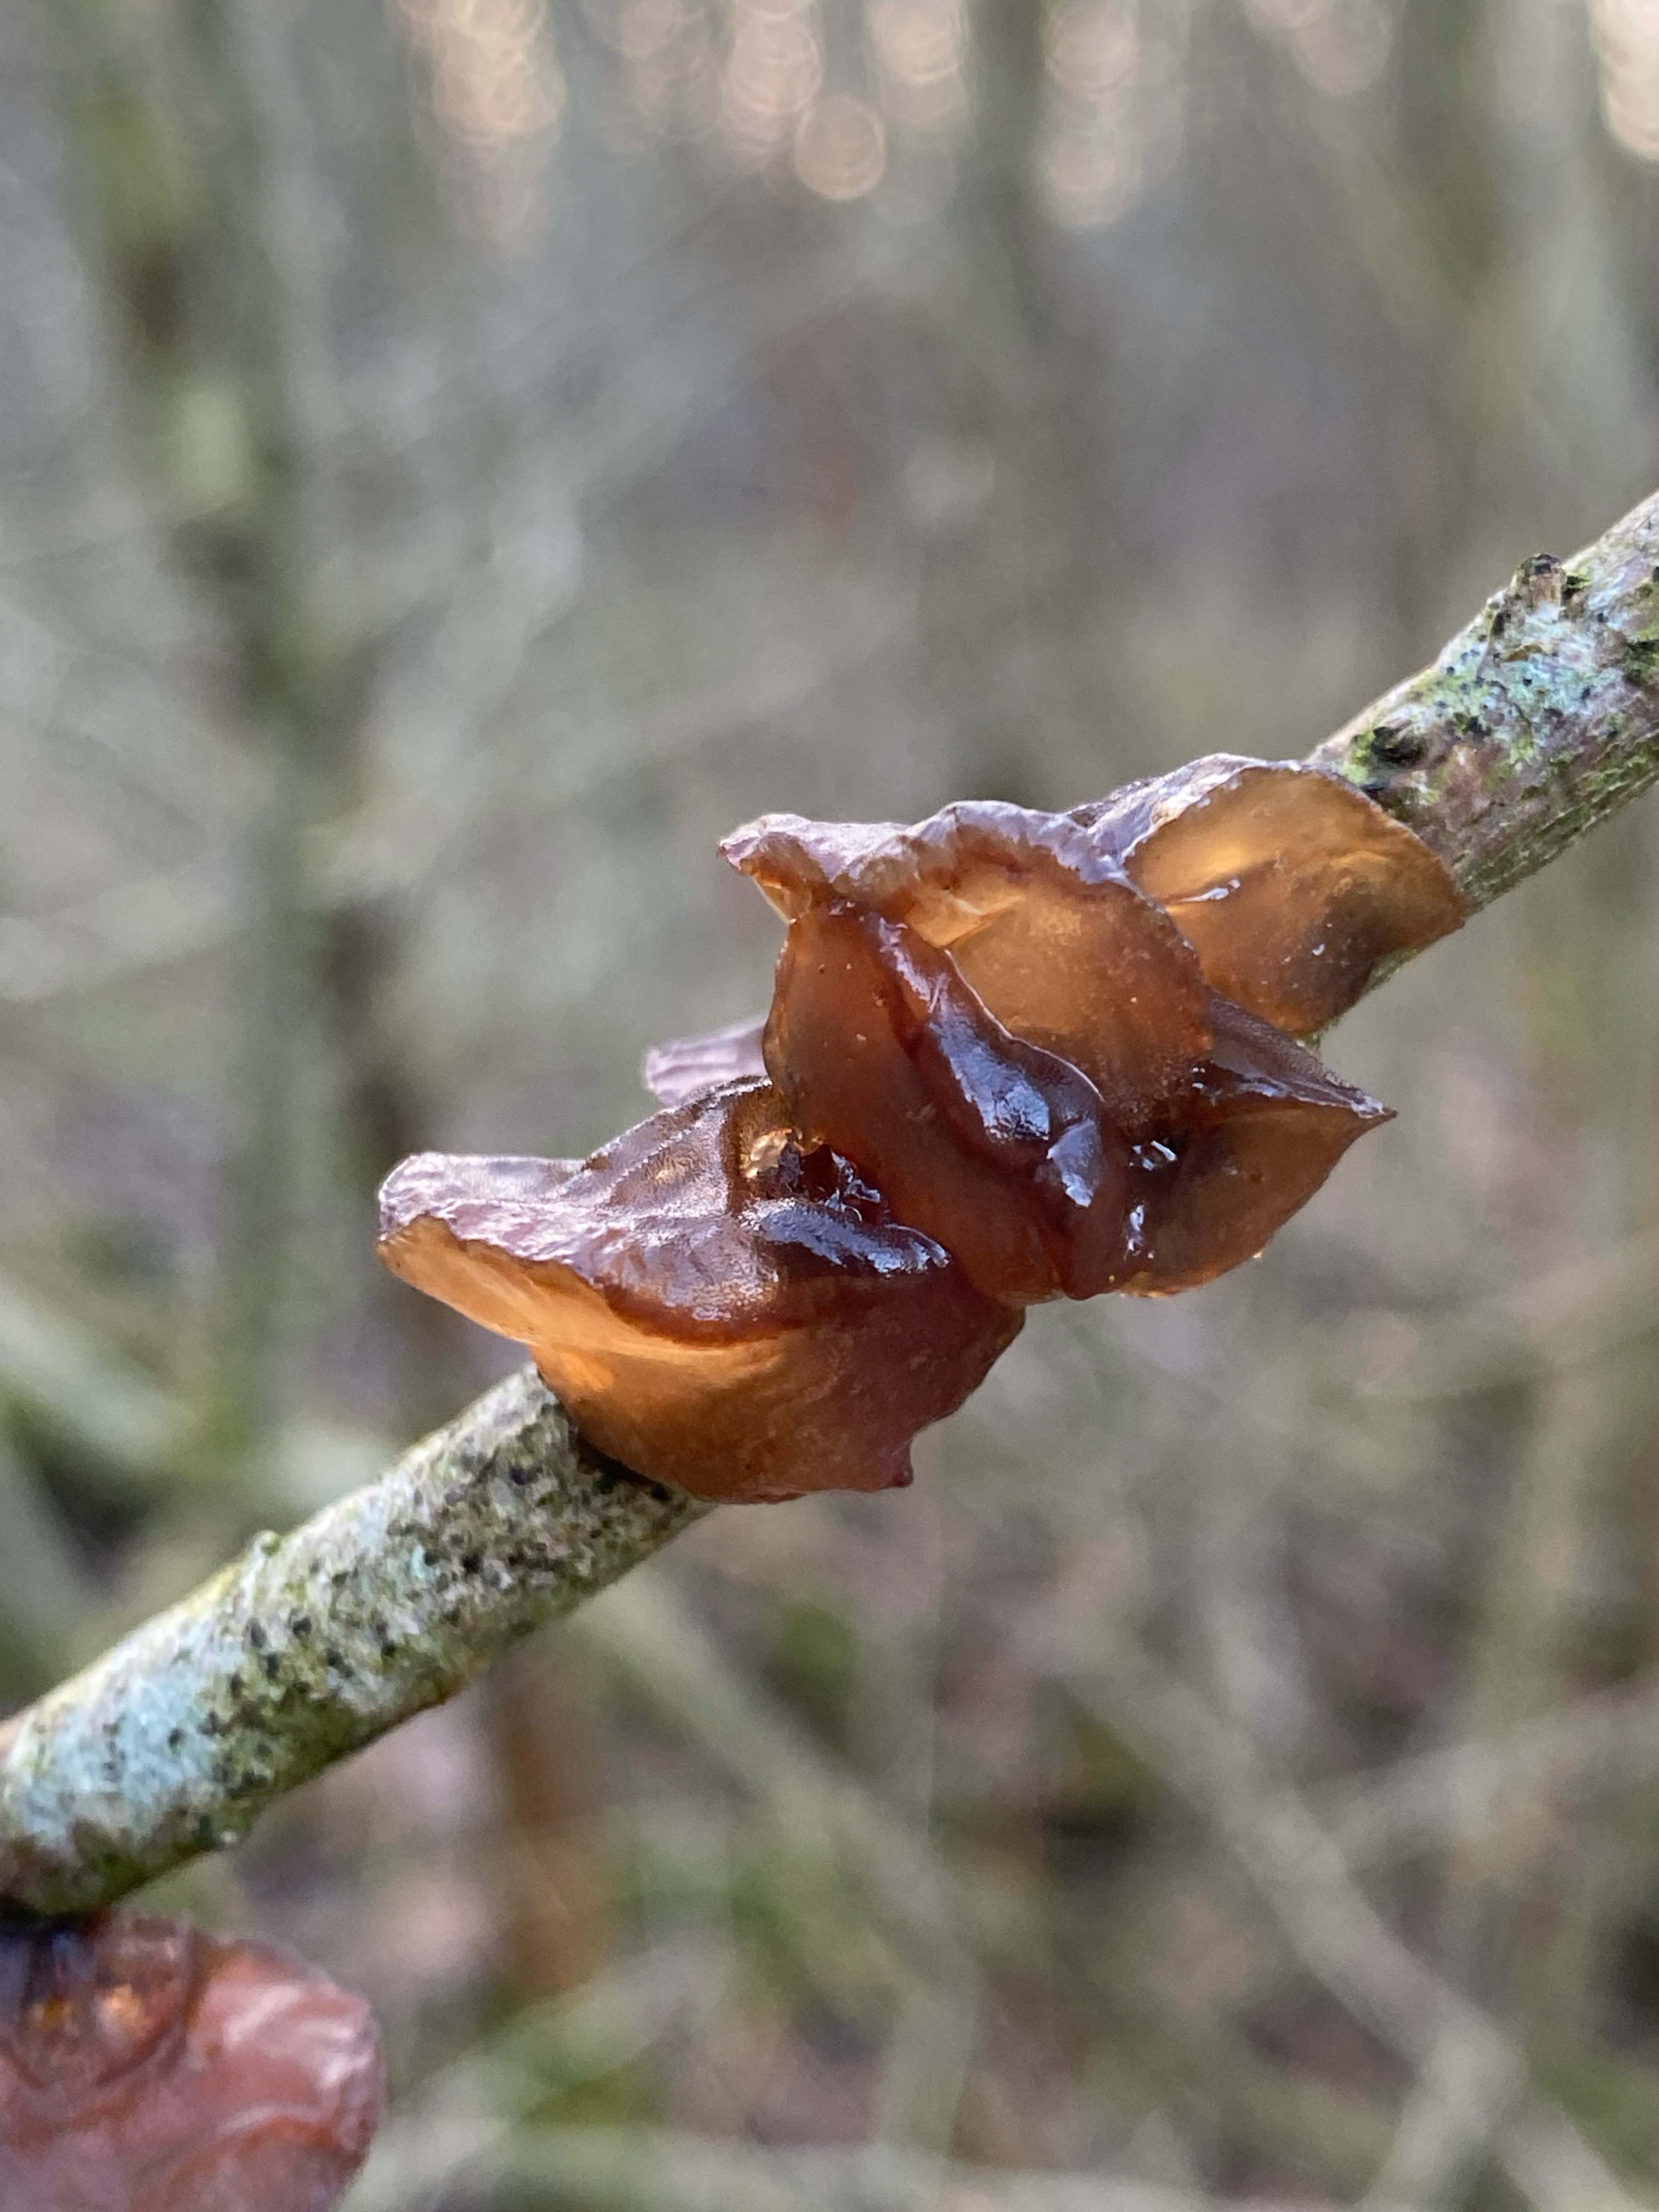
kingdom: Fungi
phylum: Basidiomycota
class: Agaricomycetes
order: Auriculariales
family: Auriculariaceae
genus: Exidia
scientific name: Exidia recisa
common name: pile-bævretop
